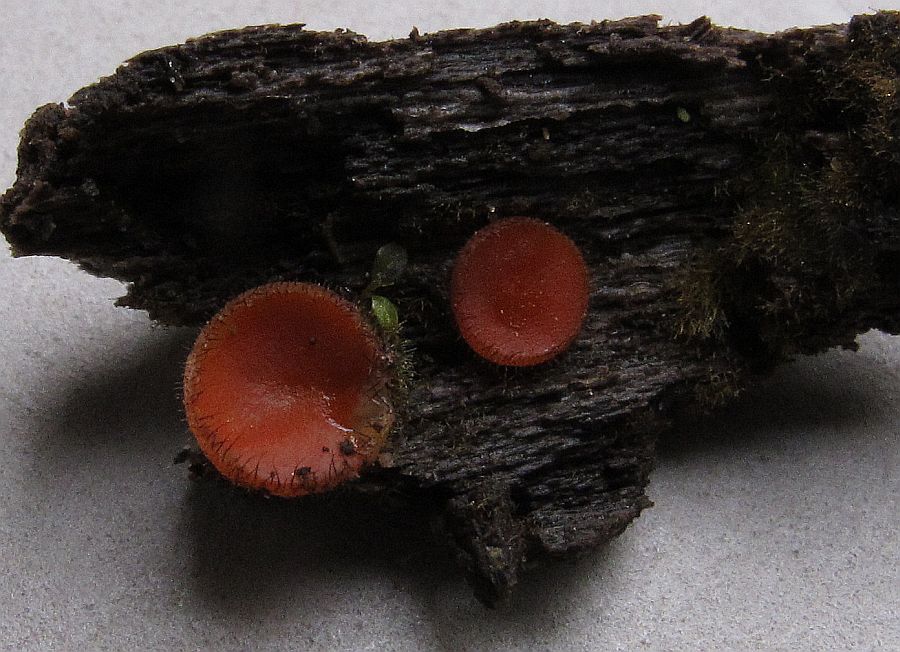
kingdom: Fungi
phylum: Ascomycota
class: Pezizomycetes
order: Pezizales
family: Pyronemataceae
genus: Scutellinia
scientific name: Scutellinia scutellata
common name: frynset skjoldbæger
